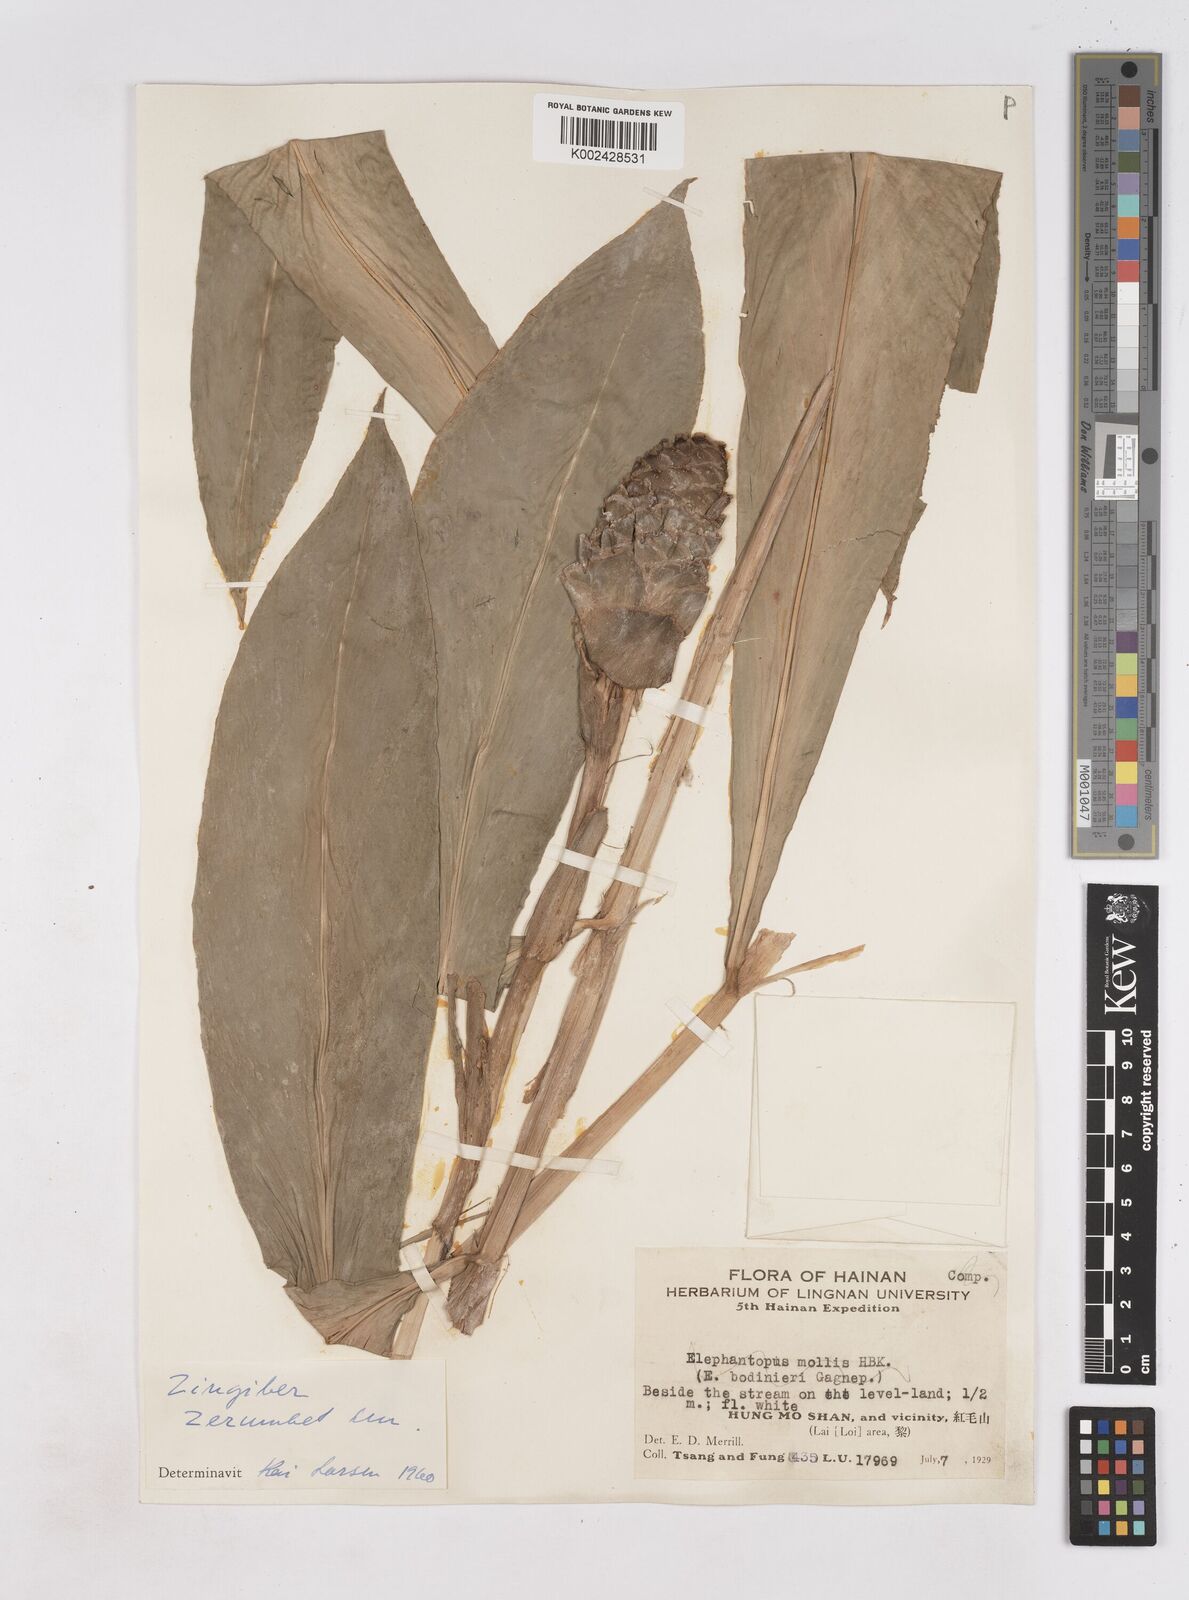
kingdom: Plantae
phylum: Tracheophyta
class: Liliopsida
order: Zingiberales
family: Zingiberaceae
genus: Zingiber
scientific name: Zingiber zerumbet
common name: Bitter ginger
